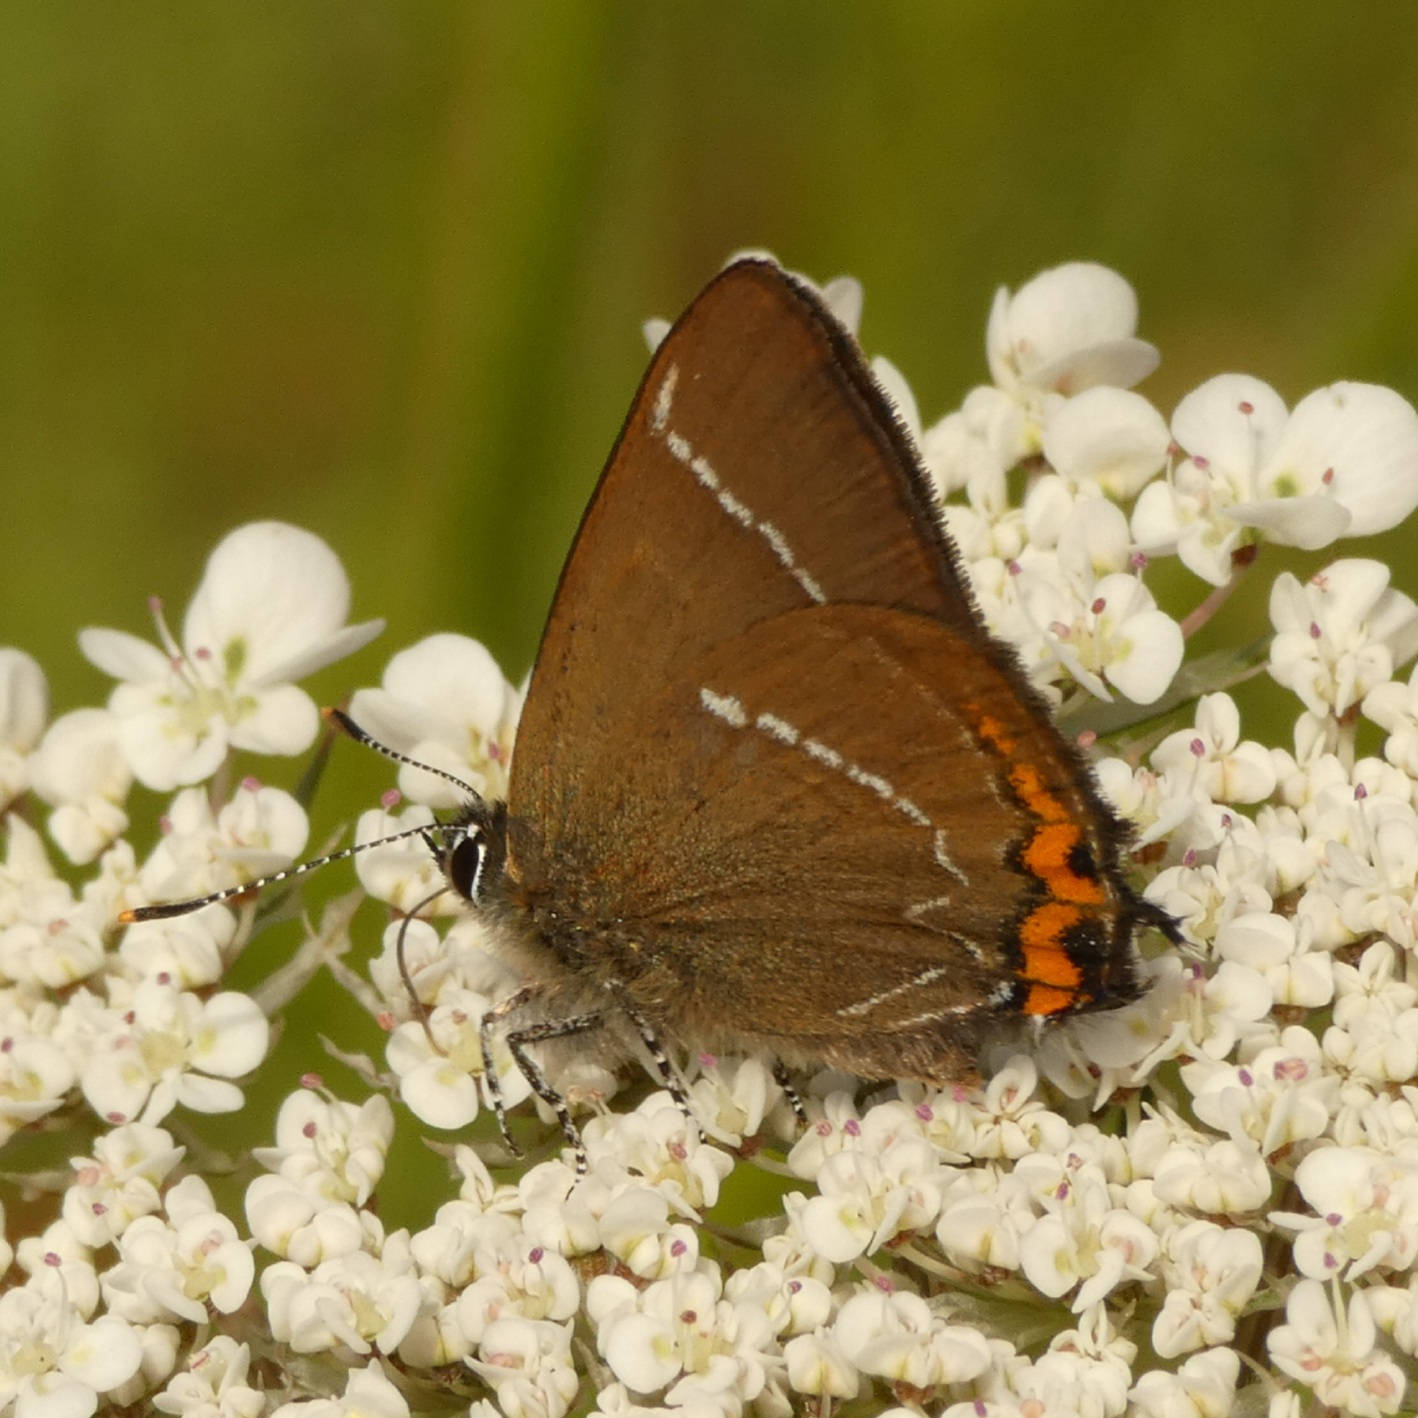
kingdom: Animalia
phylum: Arthropoda
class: Insecta
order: Lepidoptera
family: Lycaenidae
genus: Satyrium
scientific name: Satyrium w-album
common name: Det hvide W
